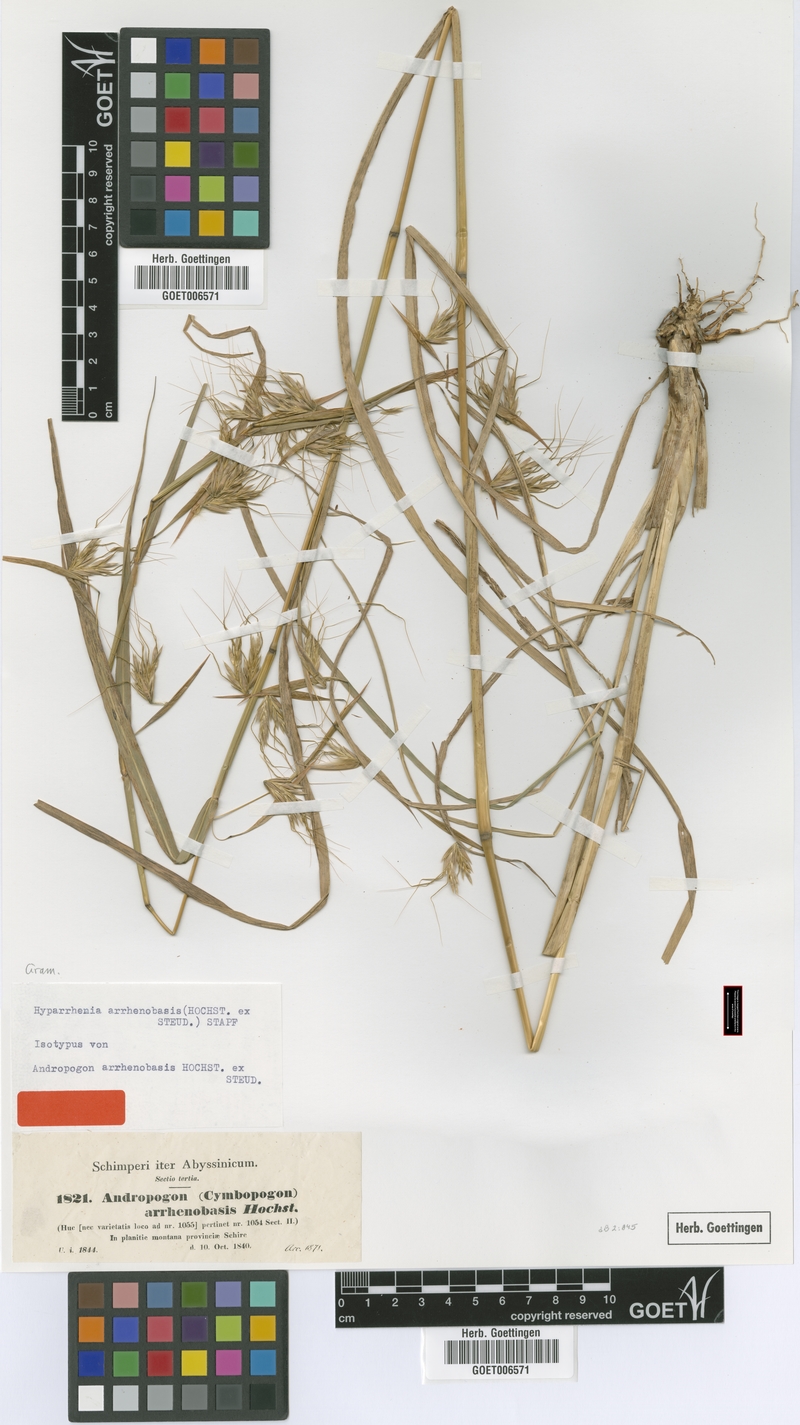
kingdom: Plantae
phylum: Tracheophyta
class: Liliopsida
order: Poales
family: Poaceae
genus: Hyparrhenia
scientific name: Hyparrhenia arrhenobasis
